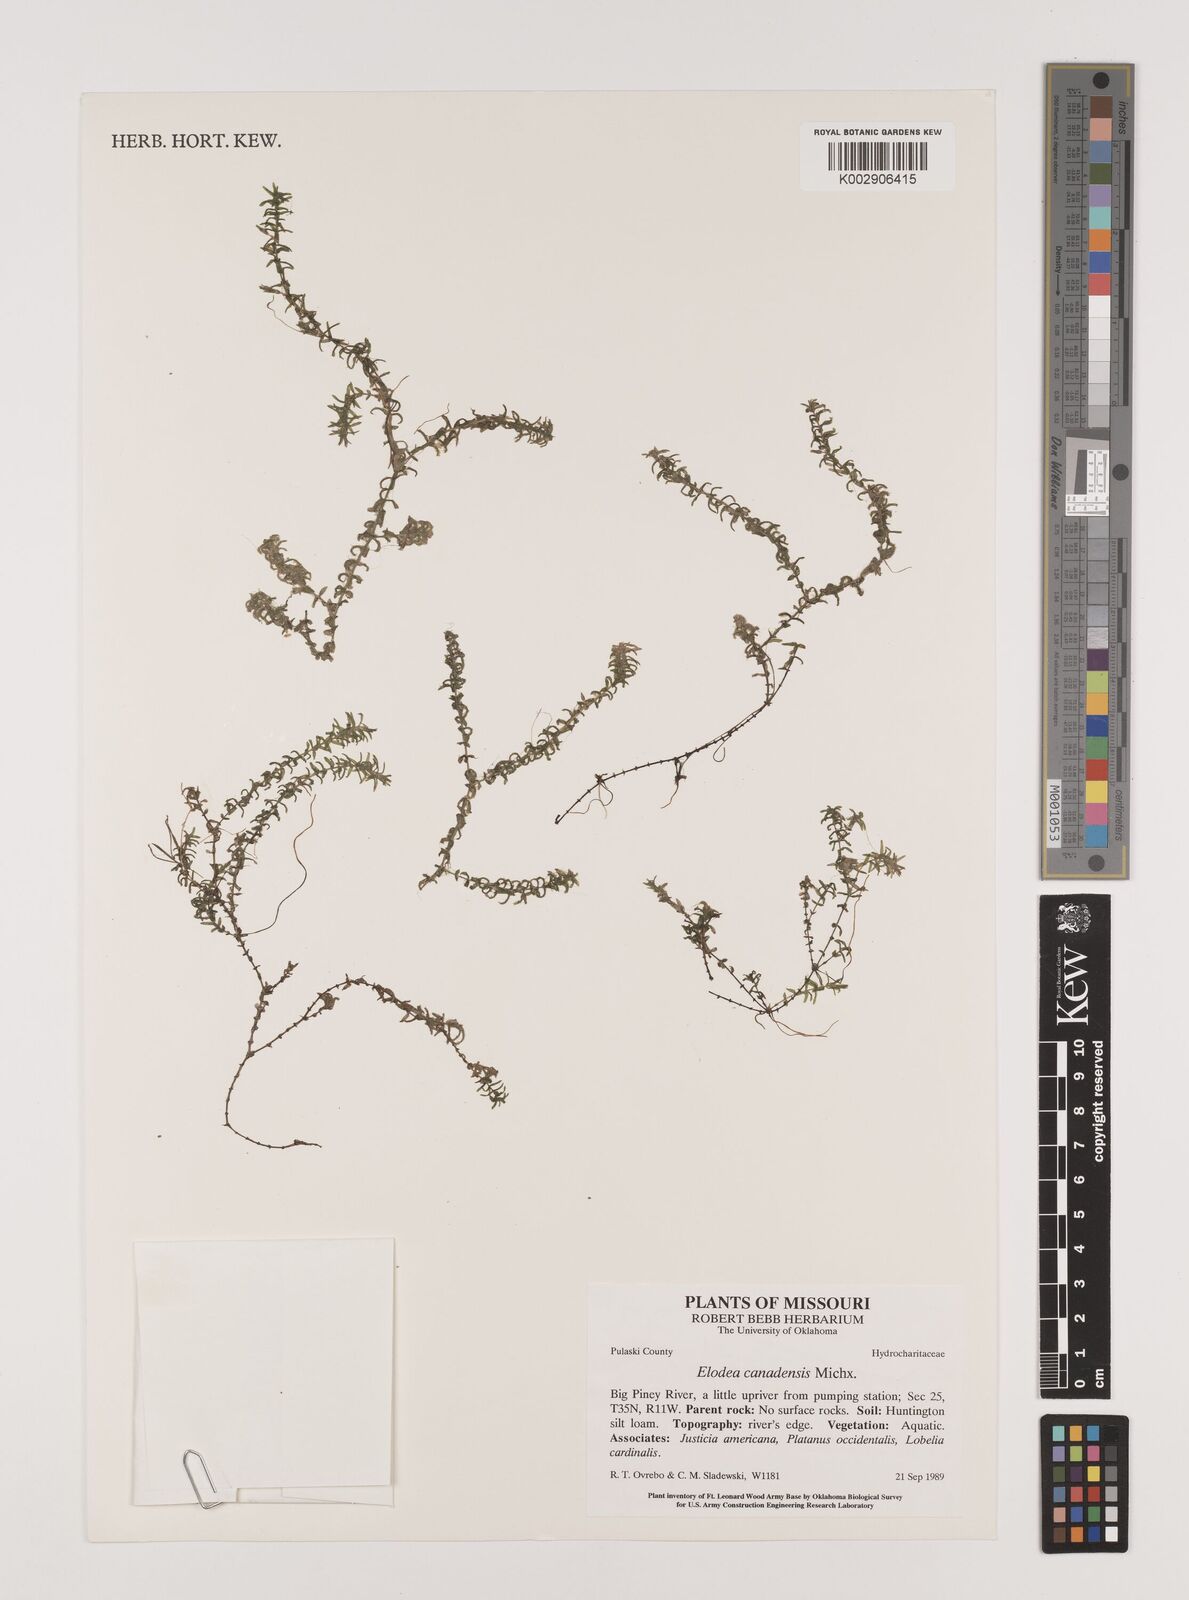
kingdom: Plantae
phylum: Tracheophyta
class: Liliopsida
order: Alismatales
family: Hydrocharitaceae
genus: Elodea
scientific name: Elodea canadensis
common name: Canadian waterweed
